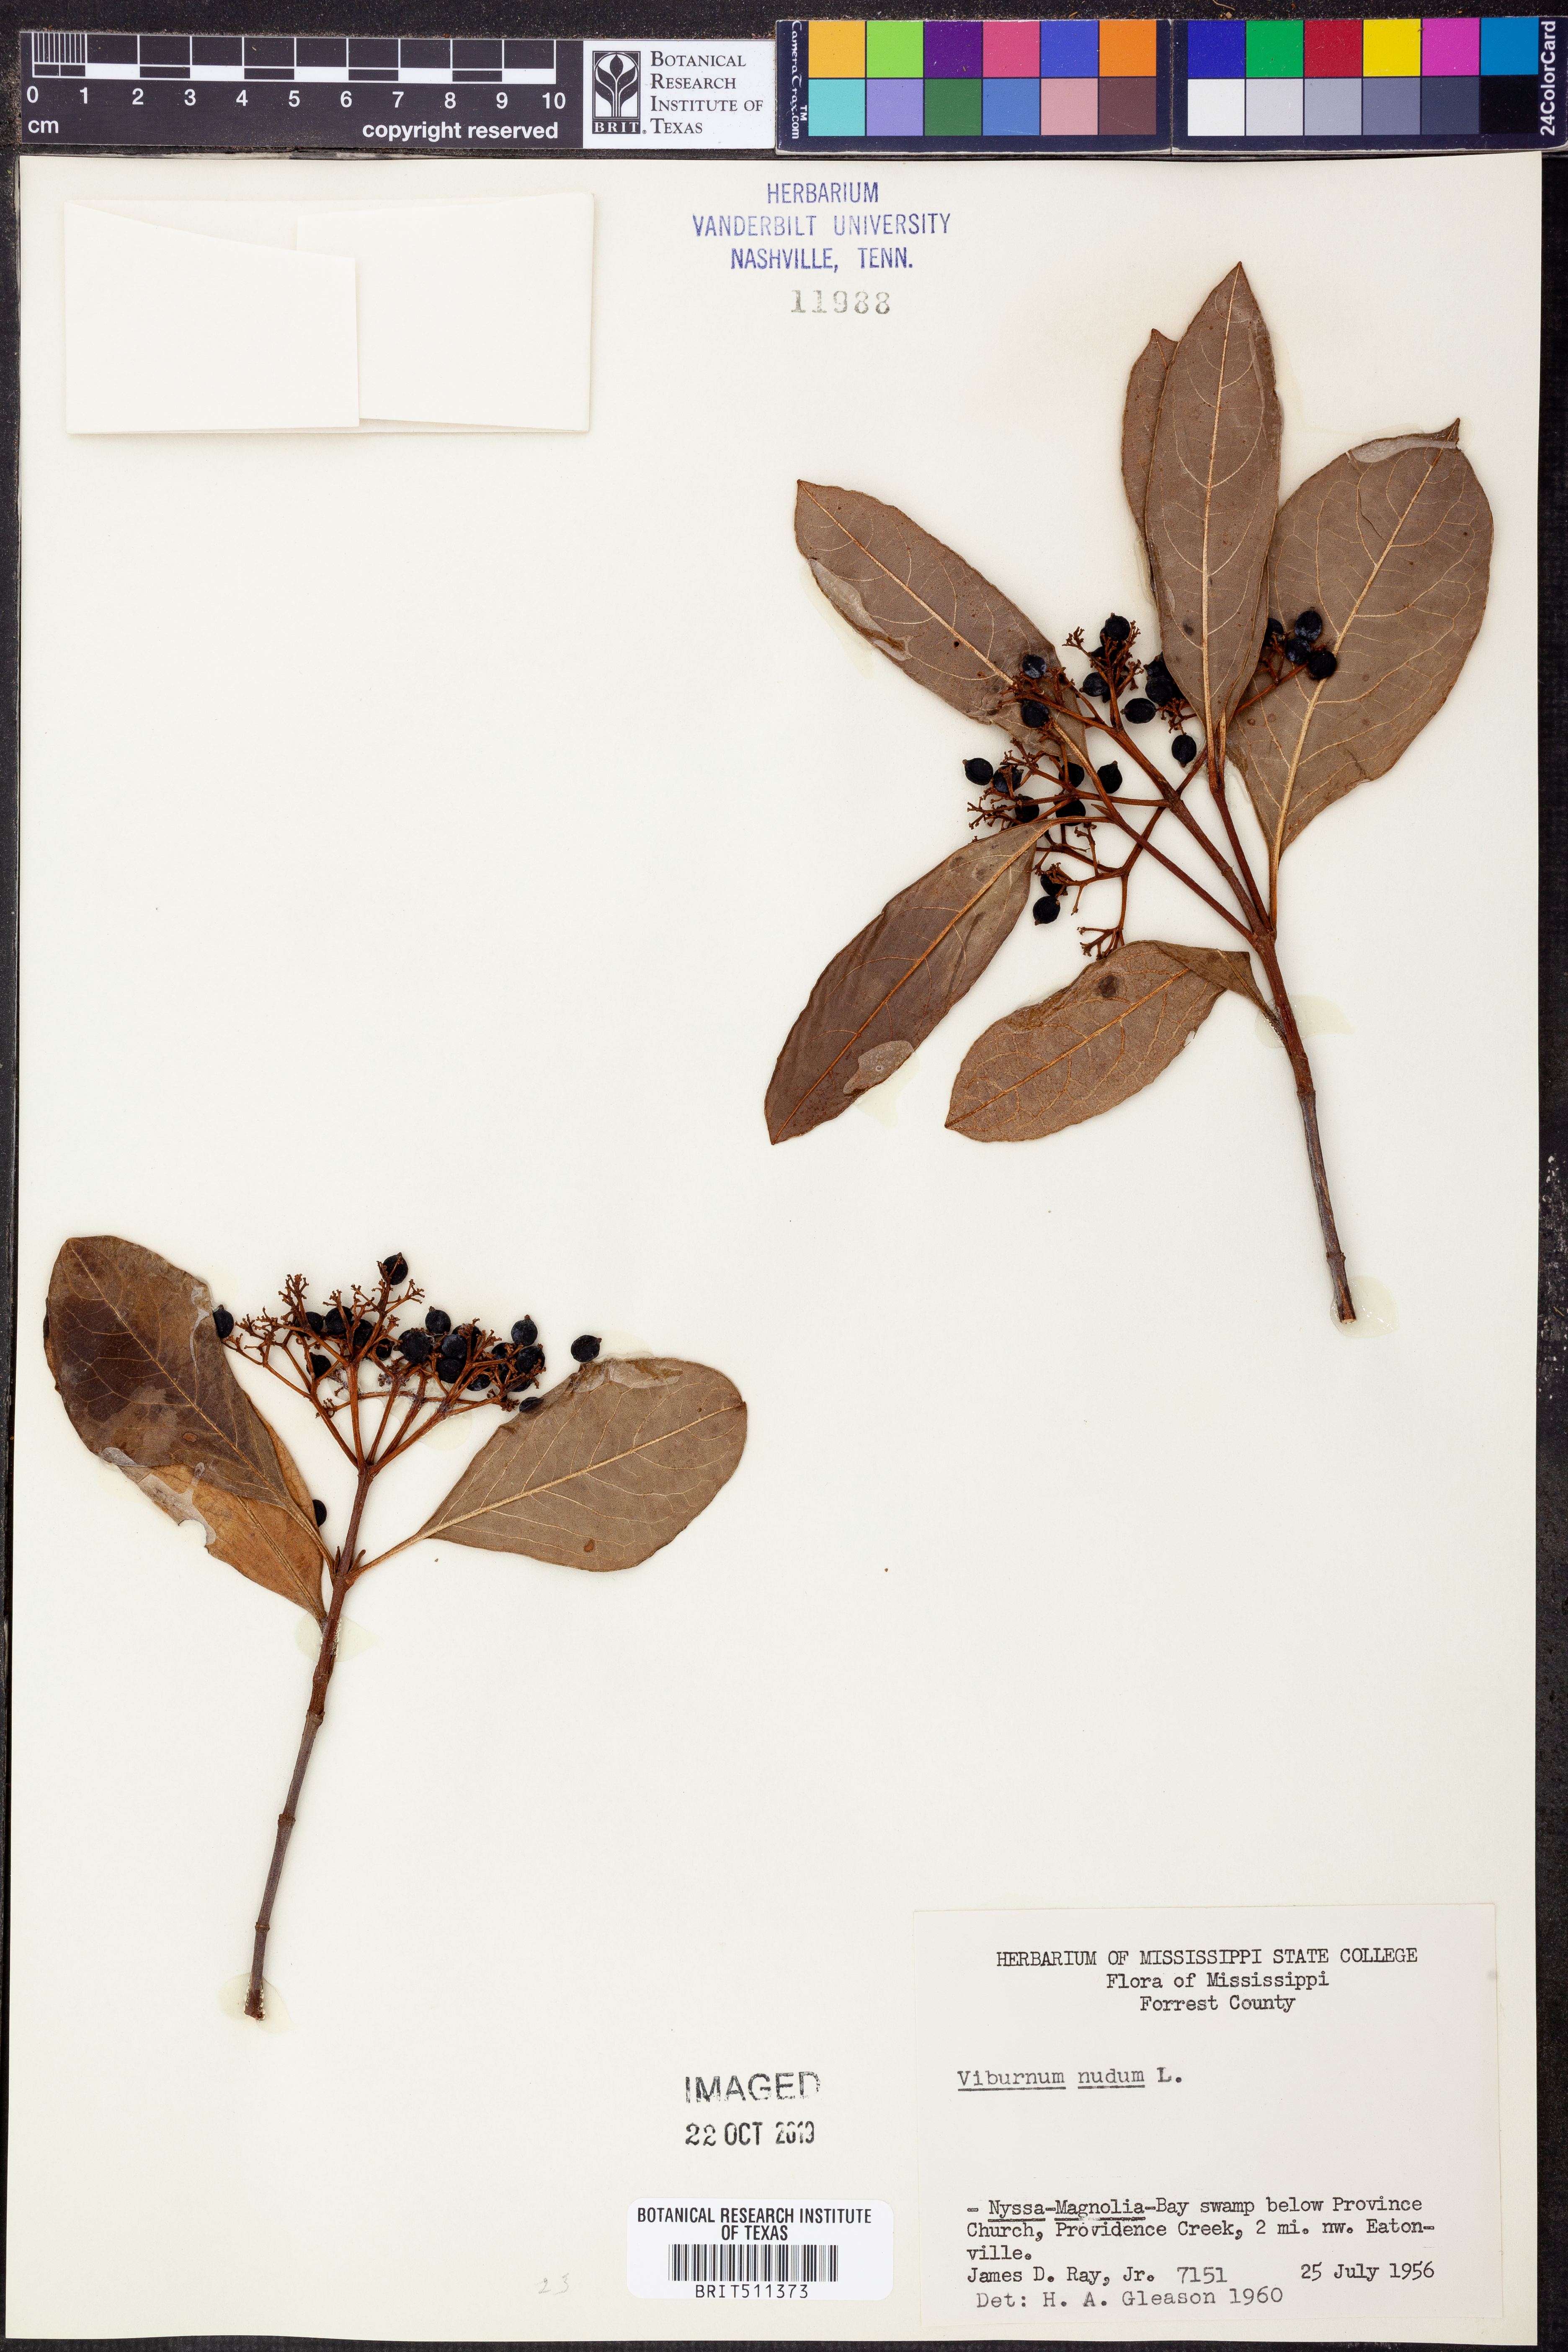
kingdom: Plantae
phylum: Tracheophyta
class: Magnoliopsida
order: Dipsacales
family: Viburnaceae
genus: Viburnum
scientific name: Viburnum nudum
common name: Possum haw
